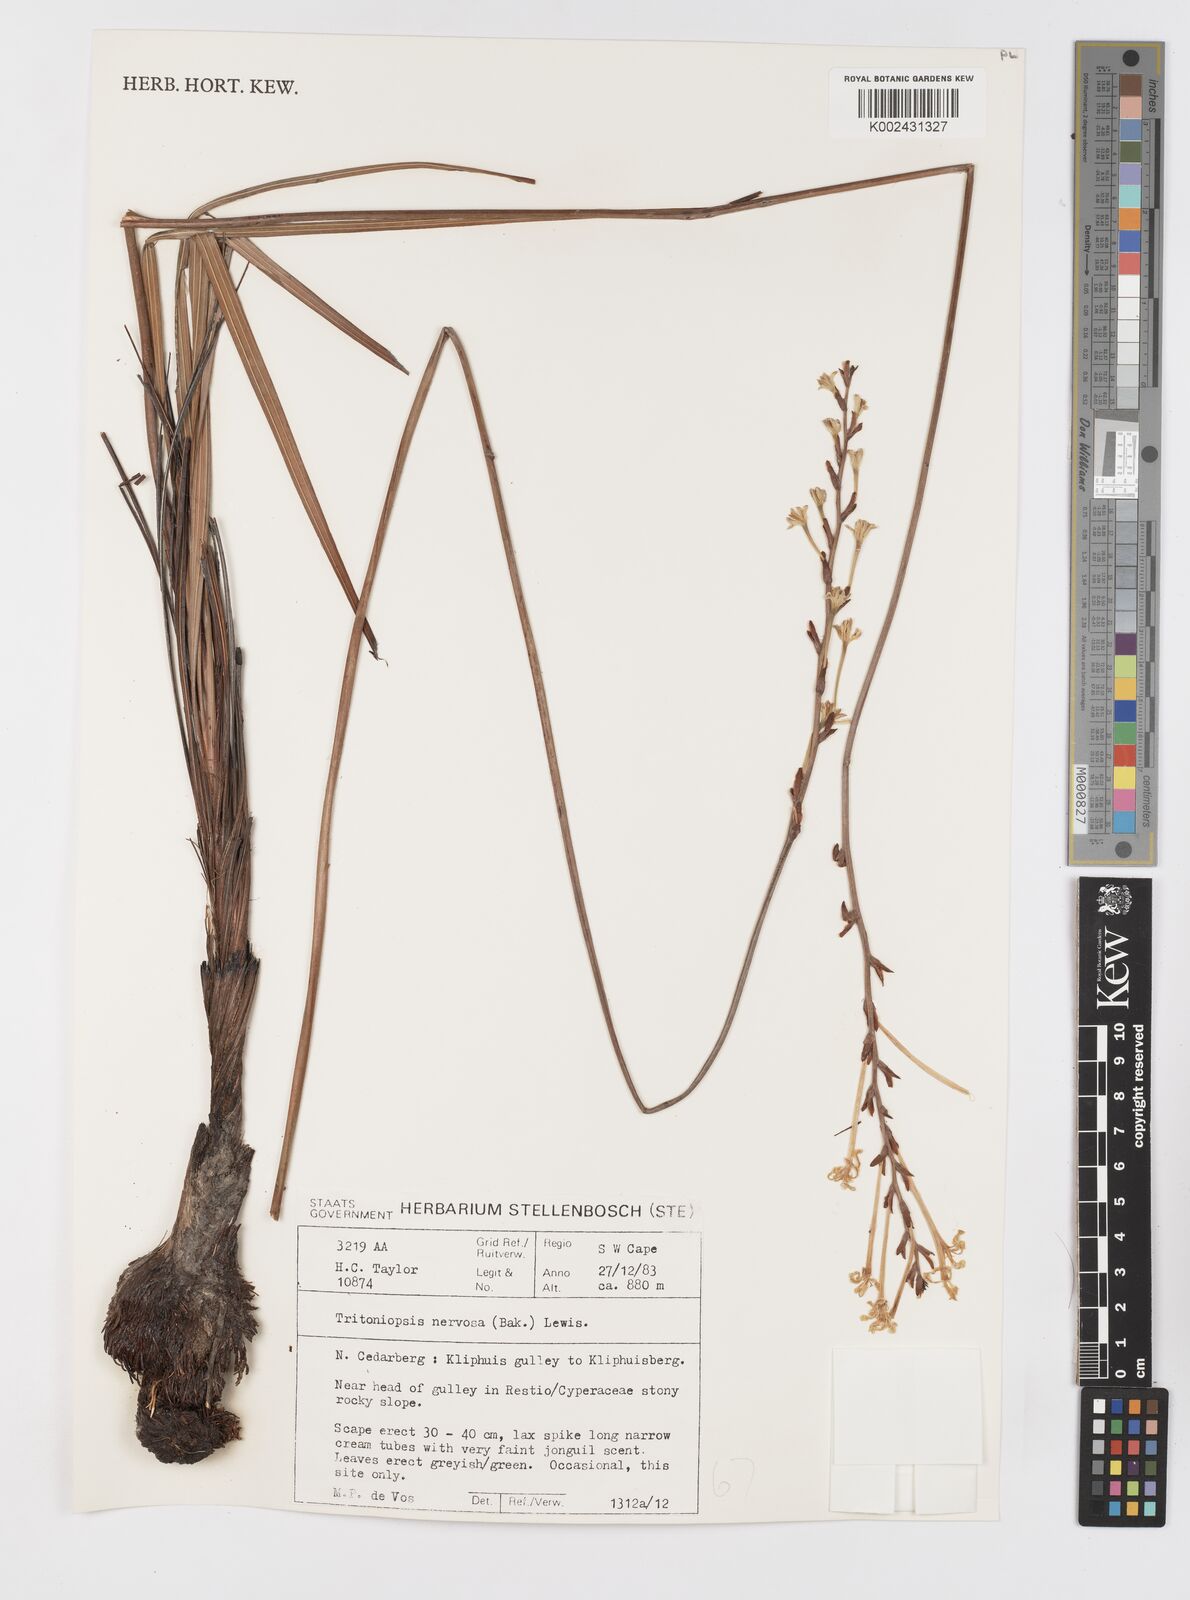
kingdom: Plantae
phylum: Tracheophyta
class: Liliopsida
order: Asparagales
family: Iridaceae
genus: Tritoniopsis
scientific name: Tritoniopsis nervosa
